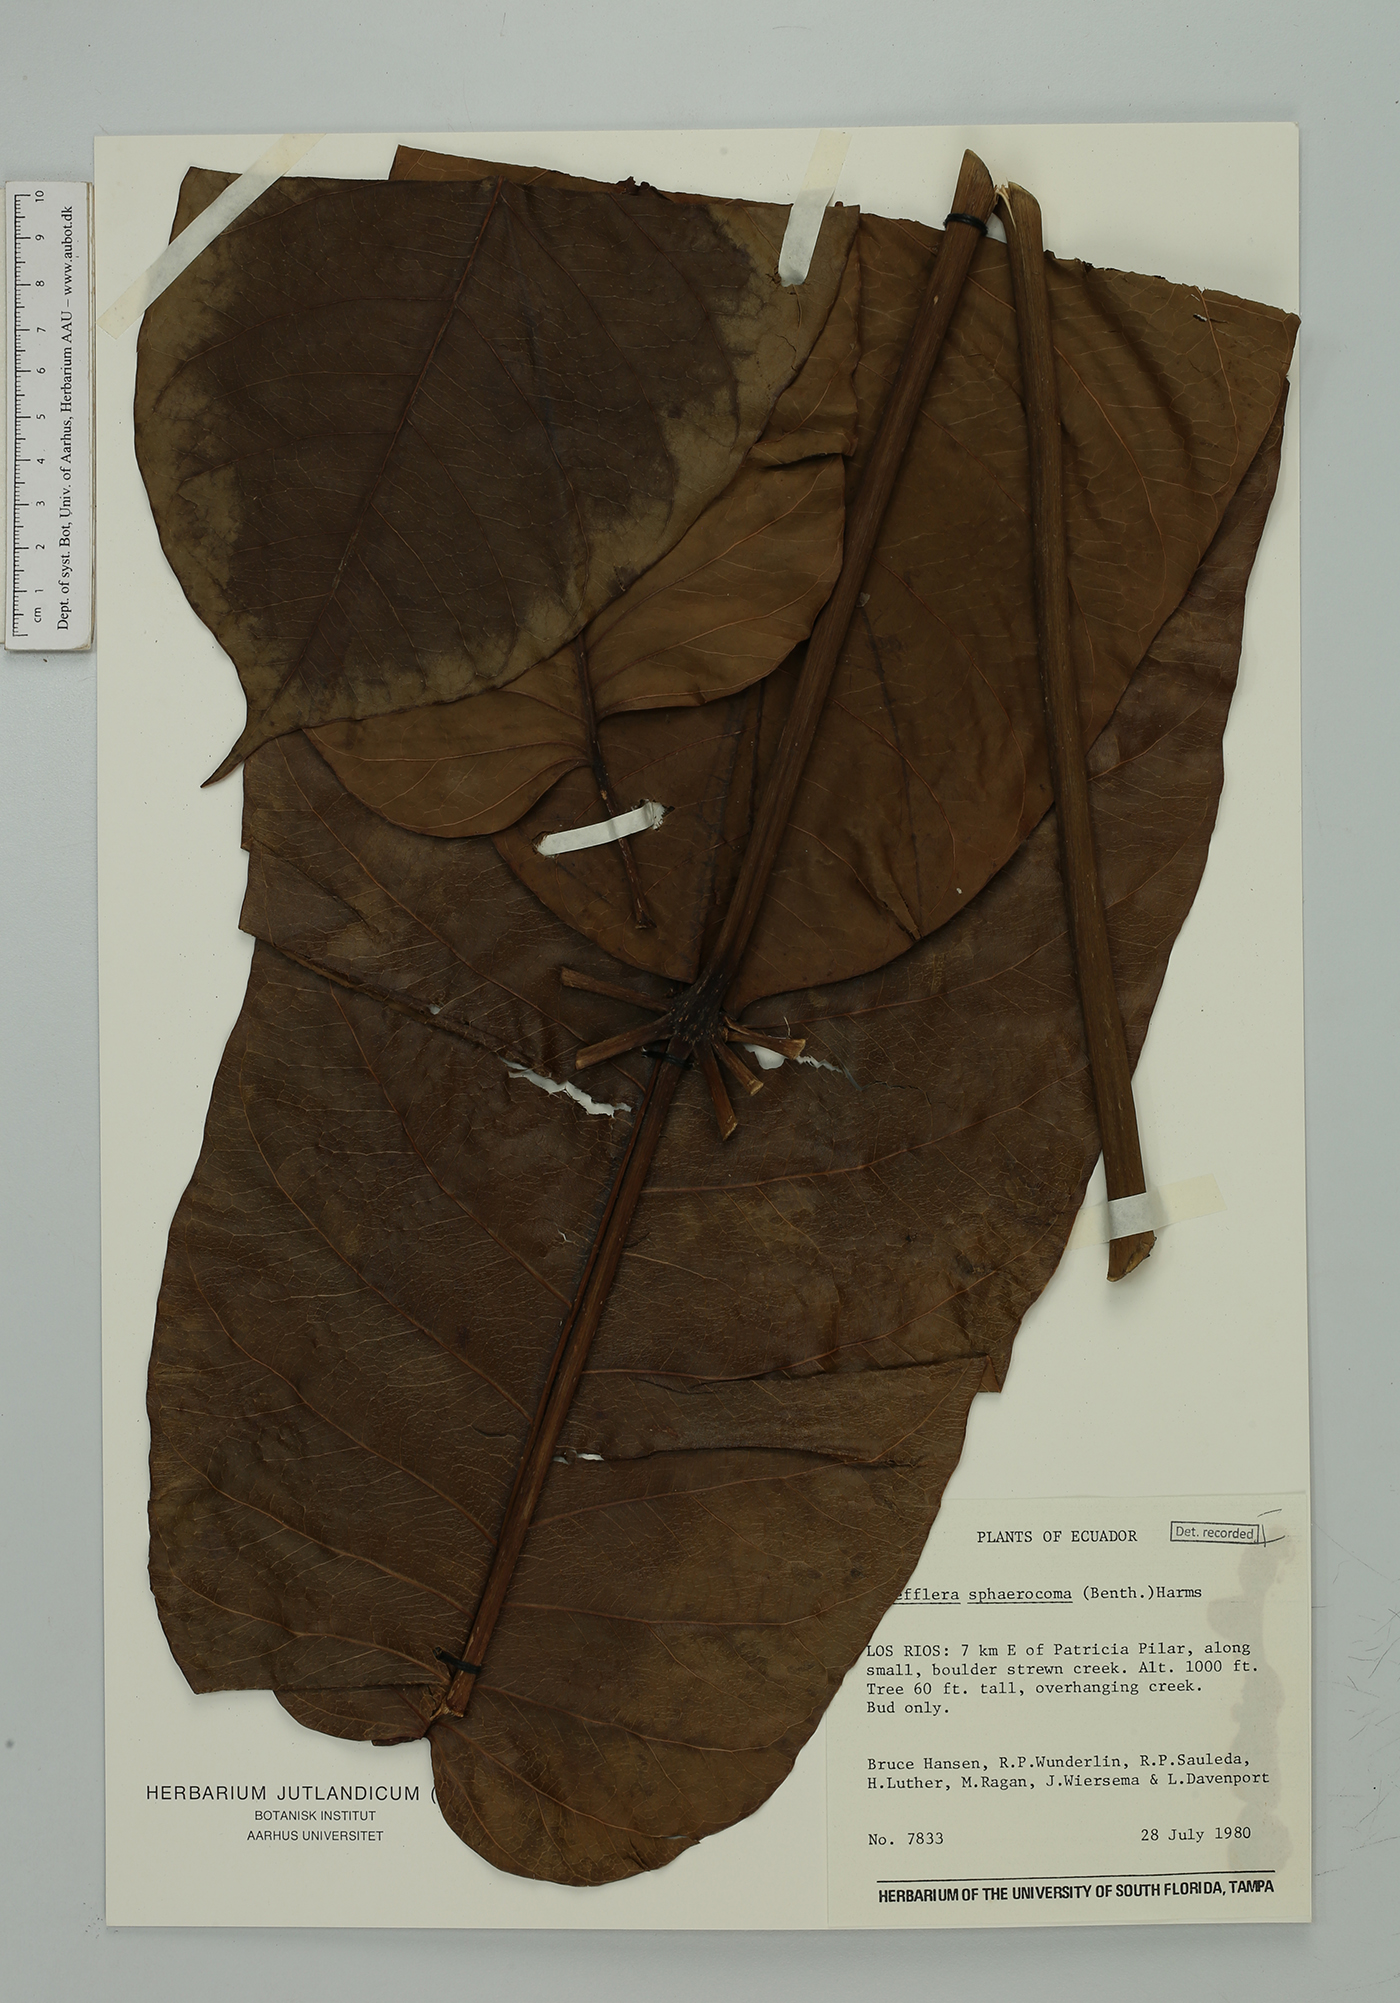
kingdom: Plantae
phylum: Tracheophyta
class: Magnoliopsida
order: Apiales
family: Araliaceae
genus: Sciodaphyllum
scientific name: Sciodaphyllum
